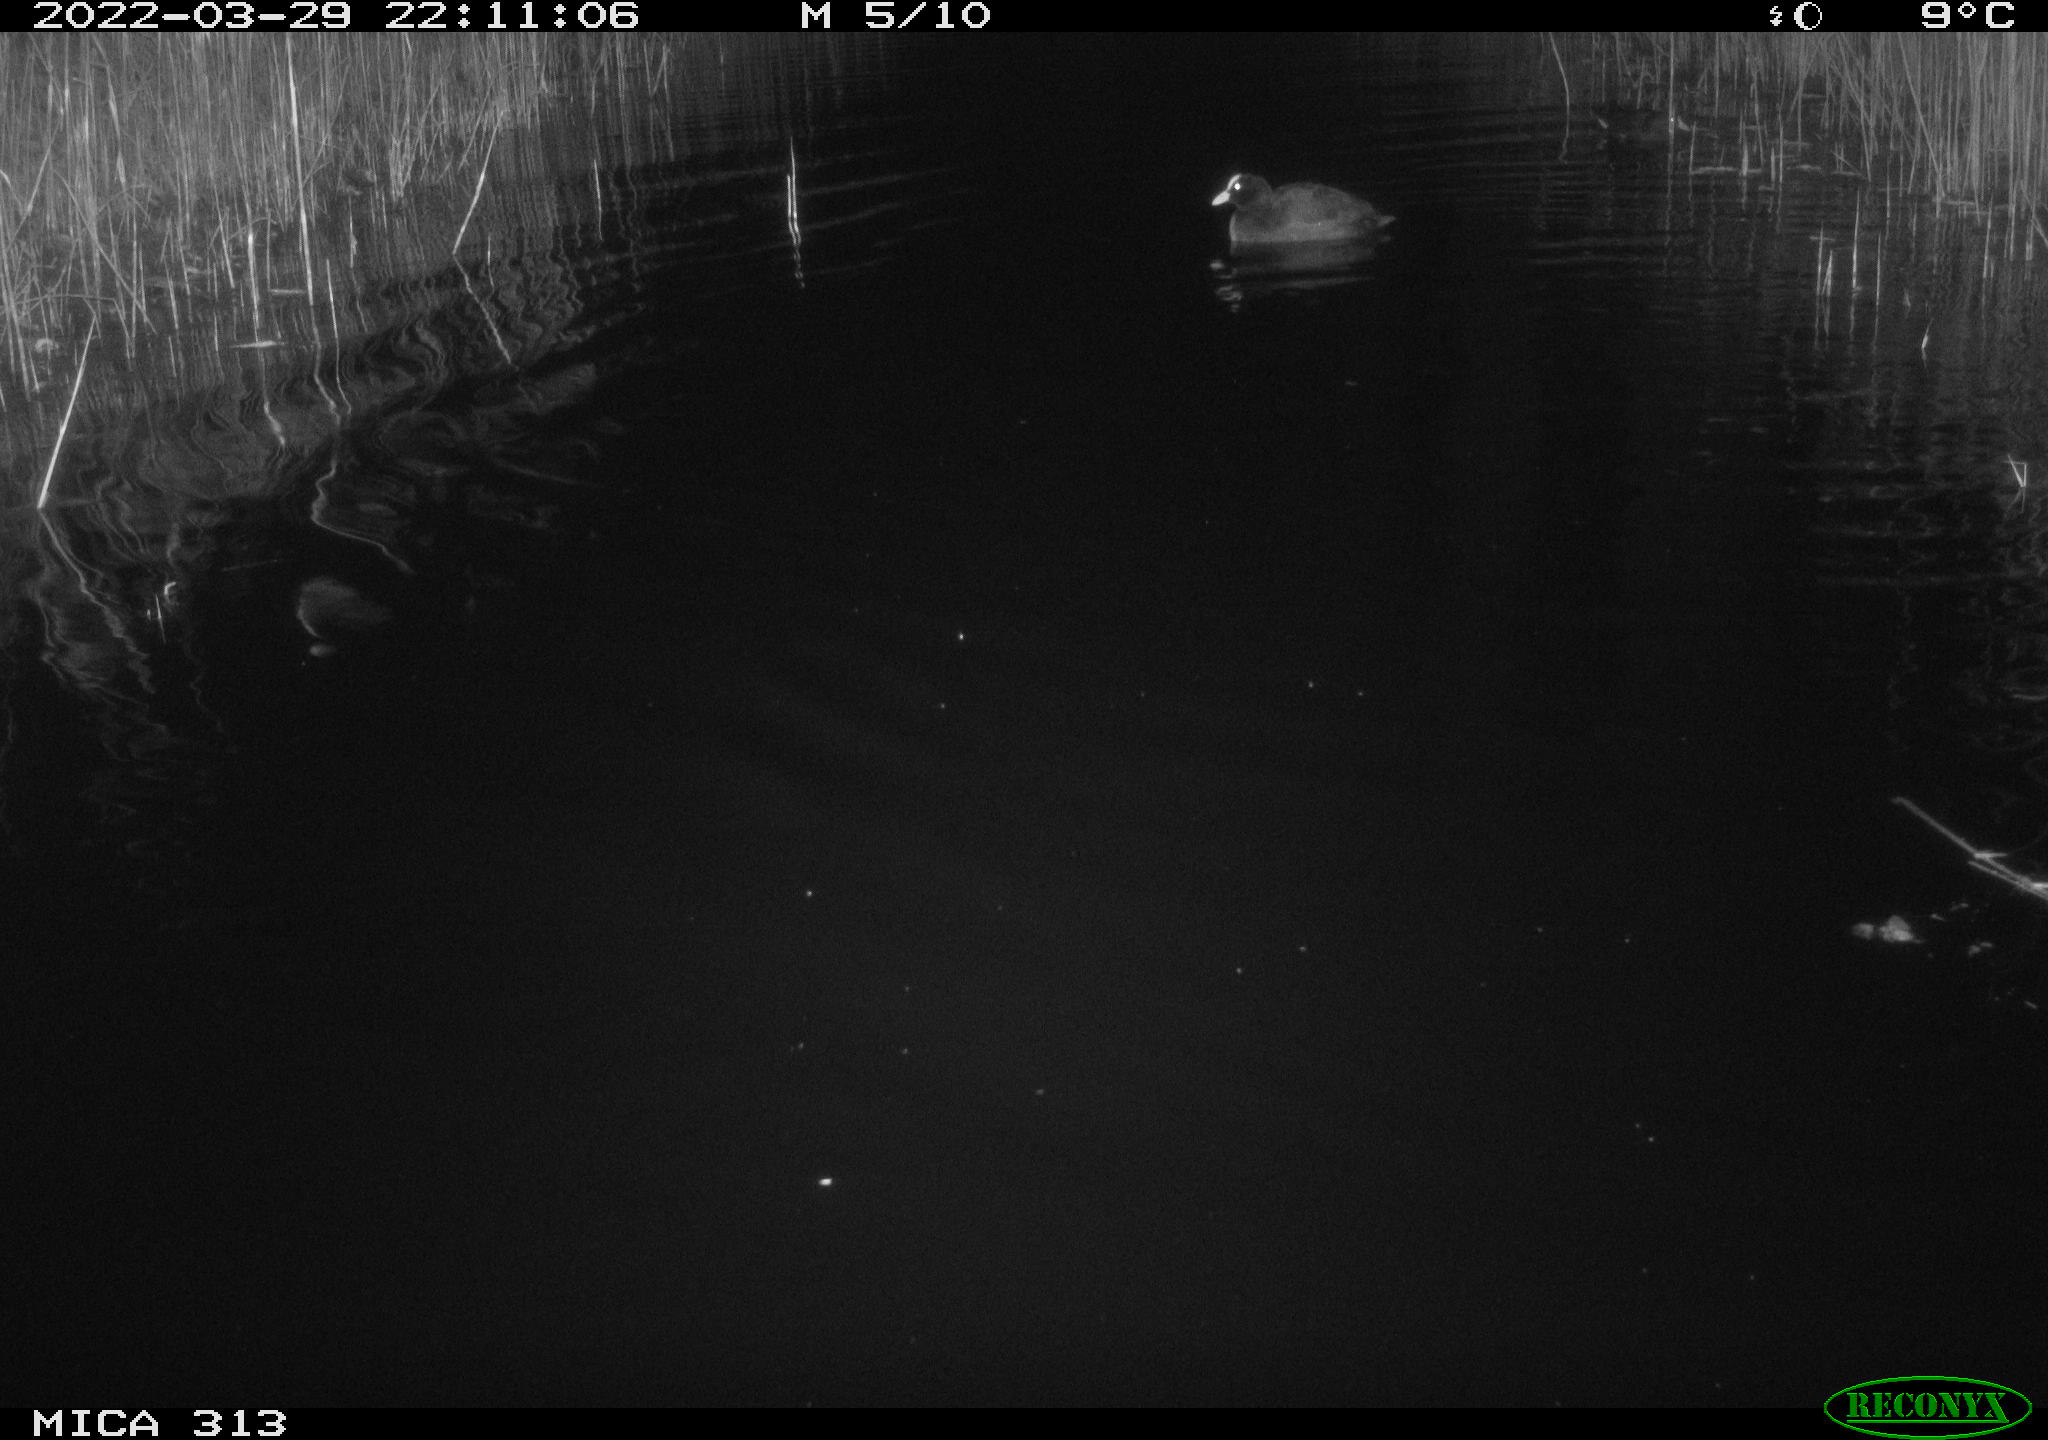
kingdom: Animalia
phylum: Chordata
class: Aves
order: Gruiformes
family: Rallidae
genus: Gallinula
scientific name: Gallinula chloropus
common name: Common moorhen
